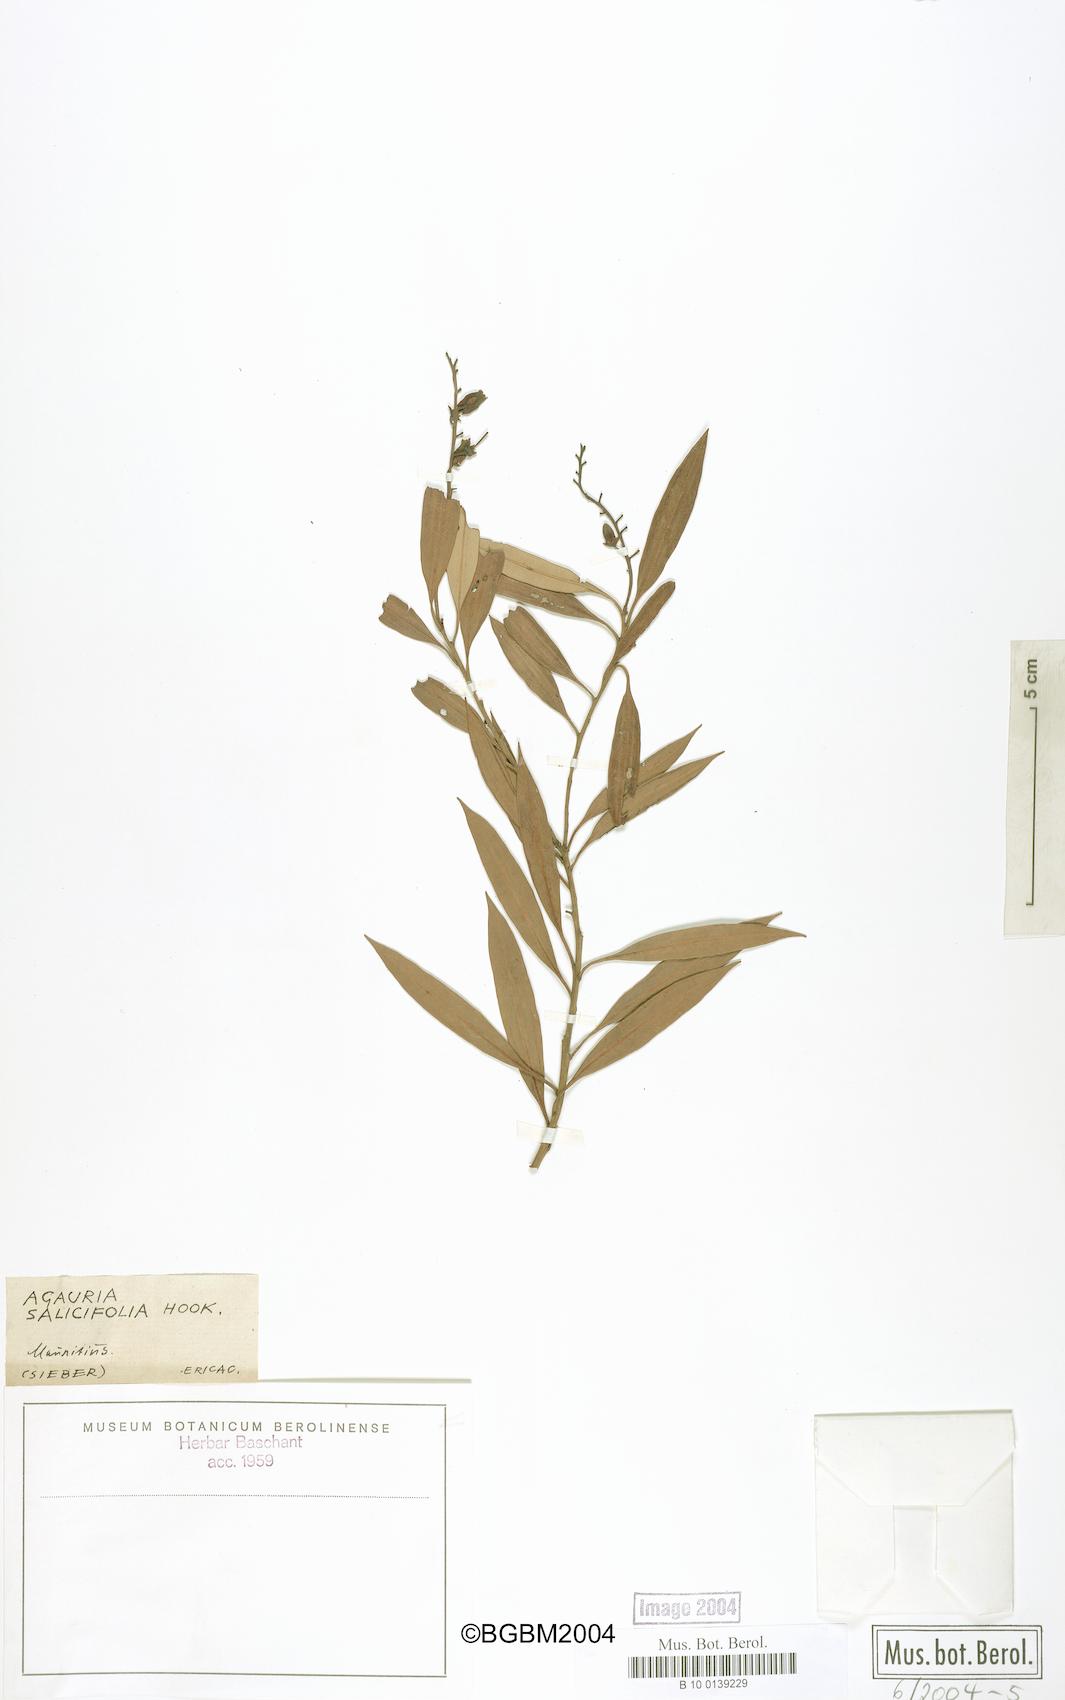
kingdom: Plantae
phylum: Tracheophyta
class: Magnoliopsida
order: Ericales
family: Ericaceae
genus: Agarista
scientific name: Agarista salicifolia
